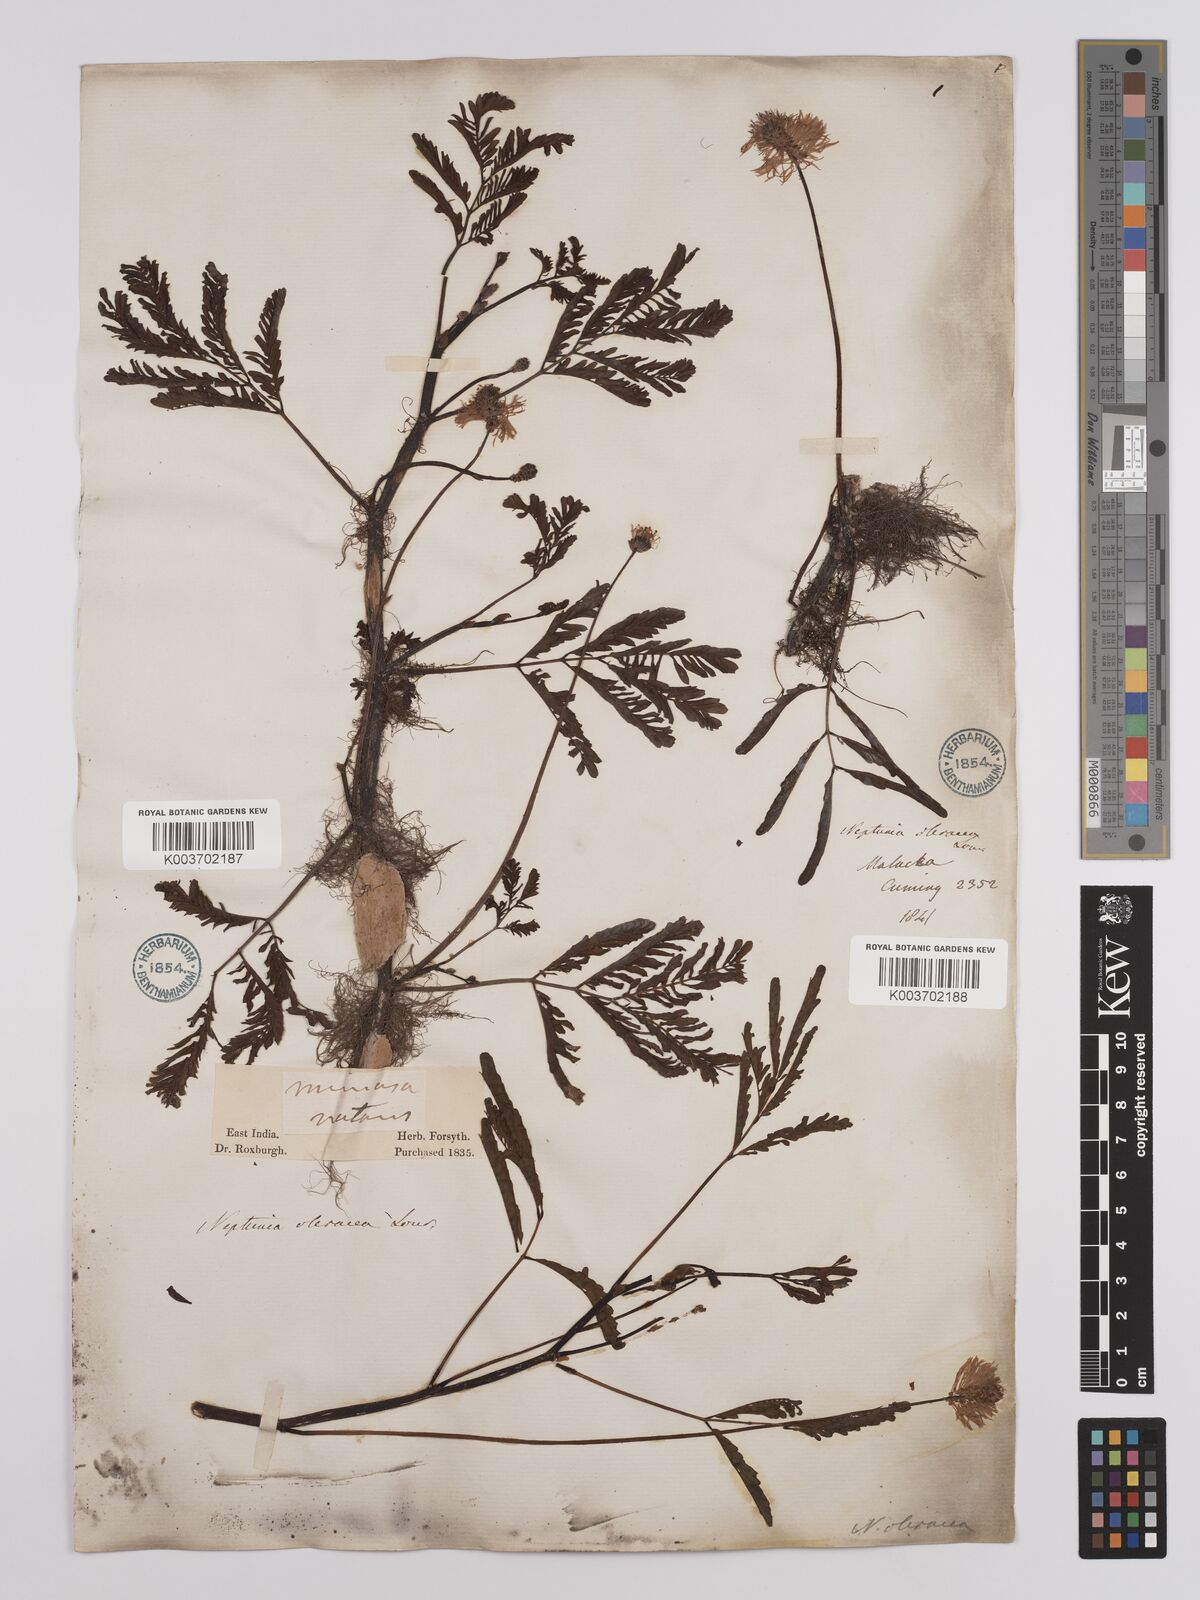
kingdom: Plantae
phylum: Tracheophyta
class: Magnoliopsida
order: Fabales
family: Fabaceae
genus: Neptunia
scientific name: Neptunia prostrata
